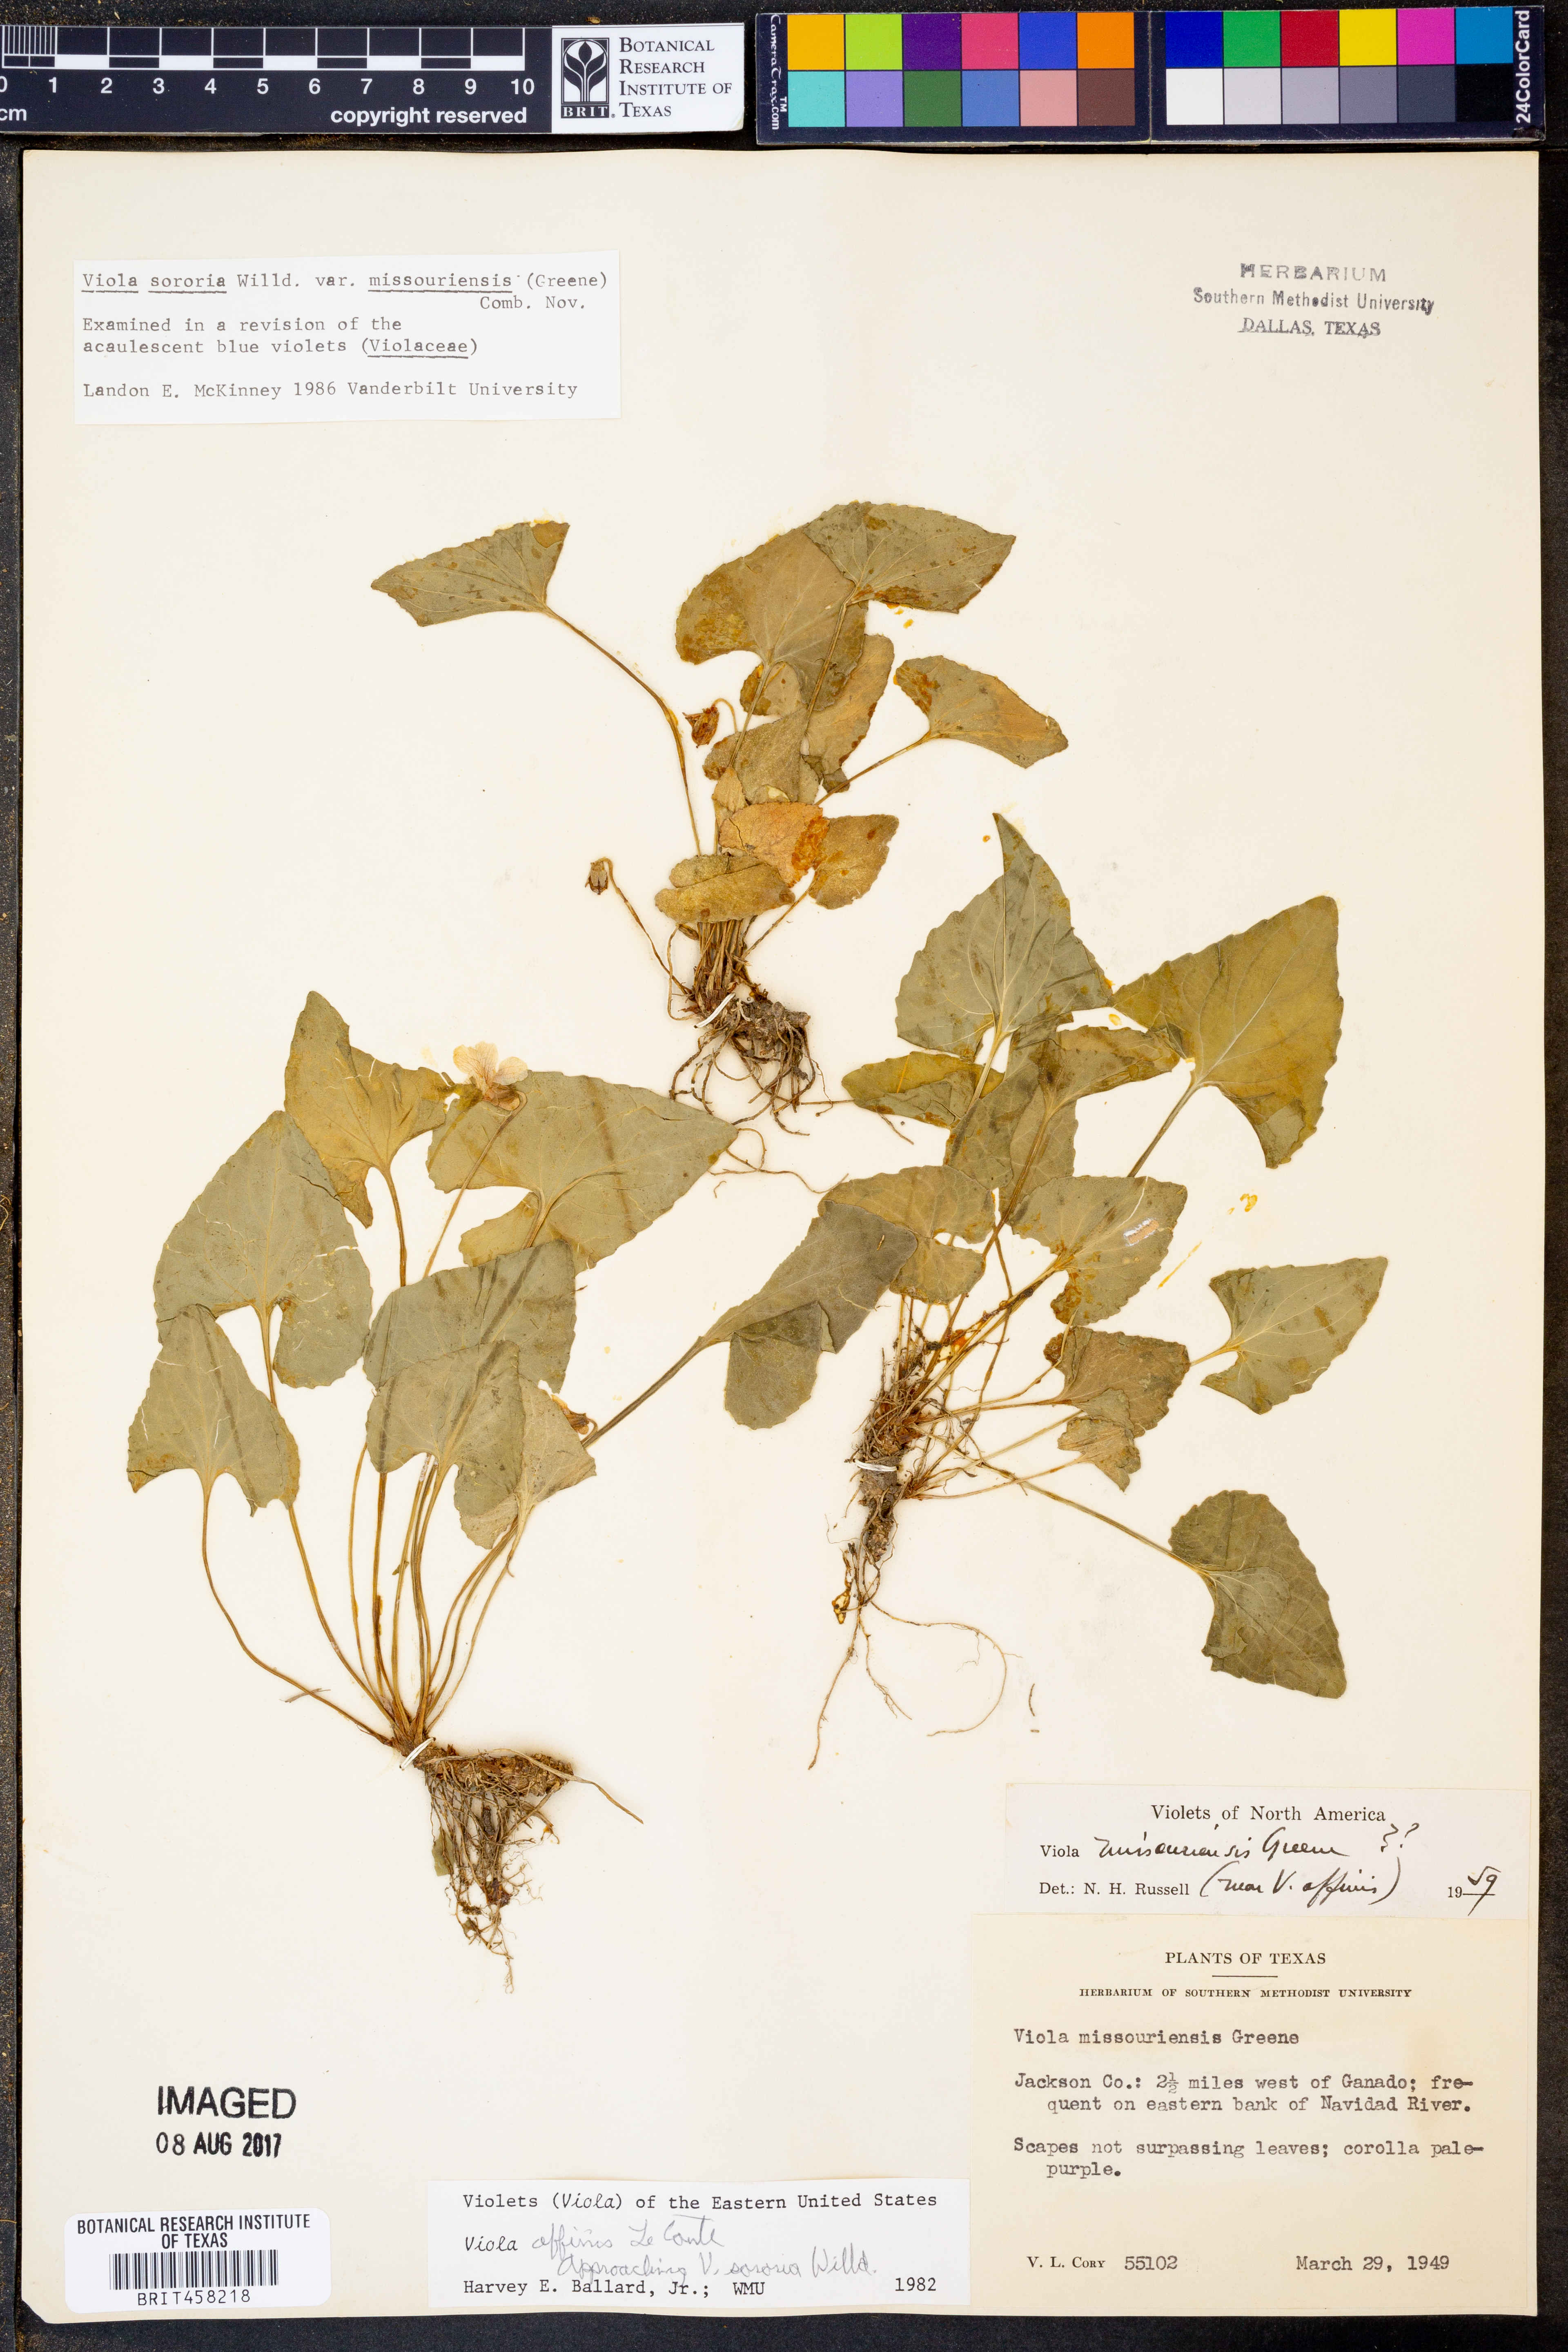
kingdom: Plantae
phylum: Tracheophyta
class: Magnoliopsida
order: Malpighiales
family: Violaceae
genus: Viola
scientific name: Viola missouriensis
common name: Missouri violet
